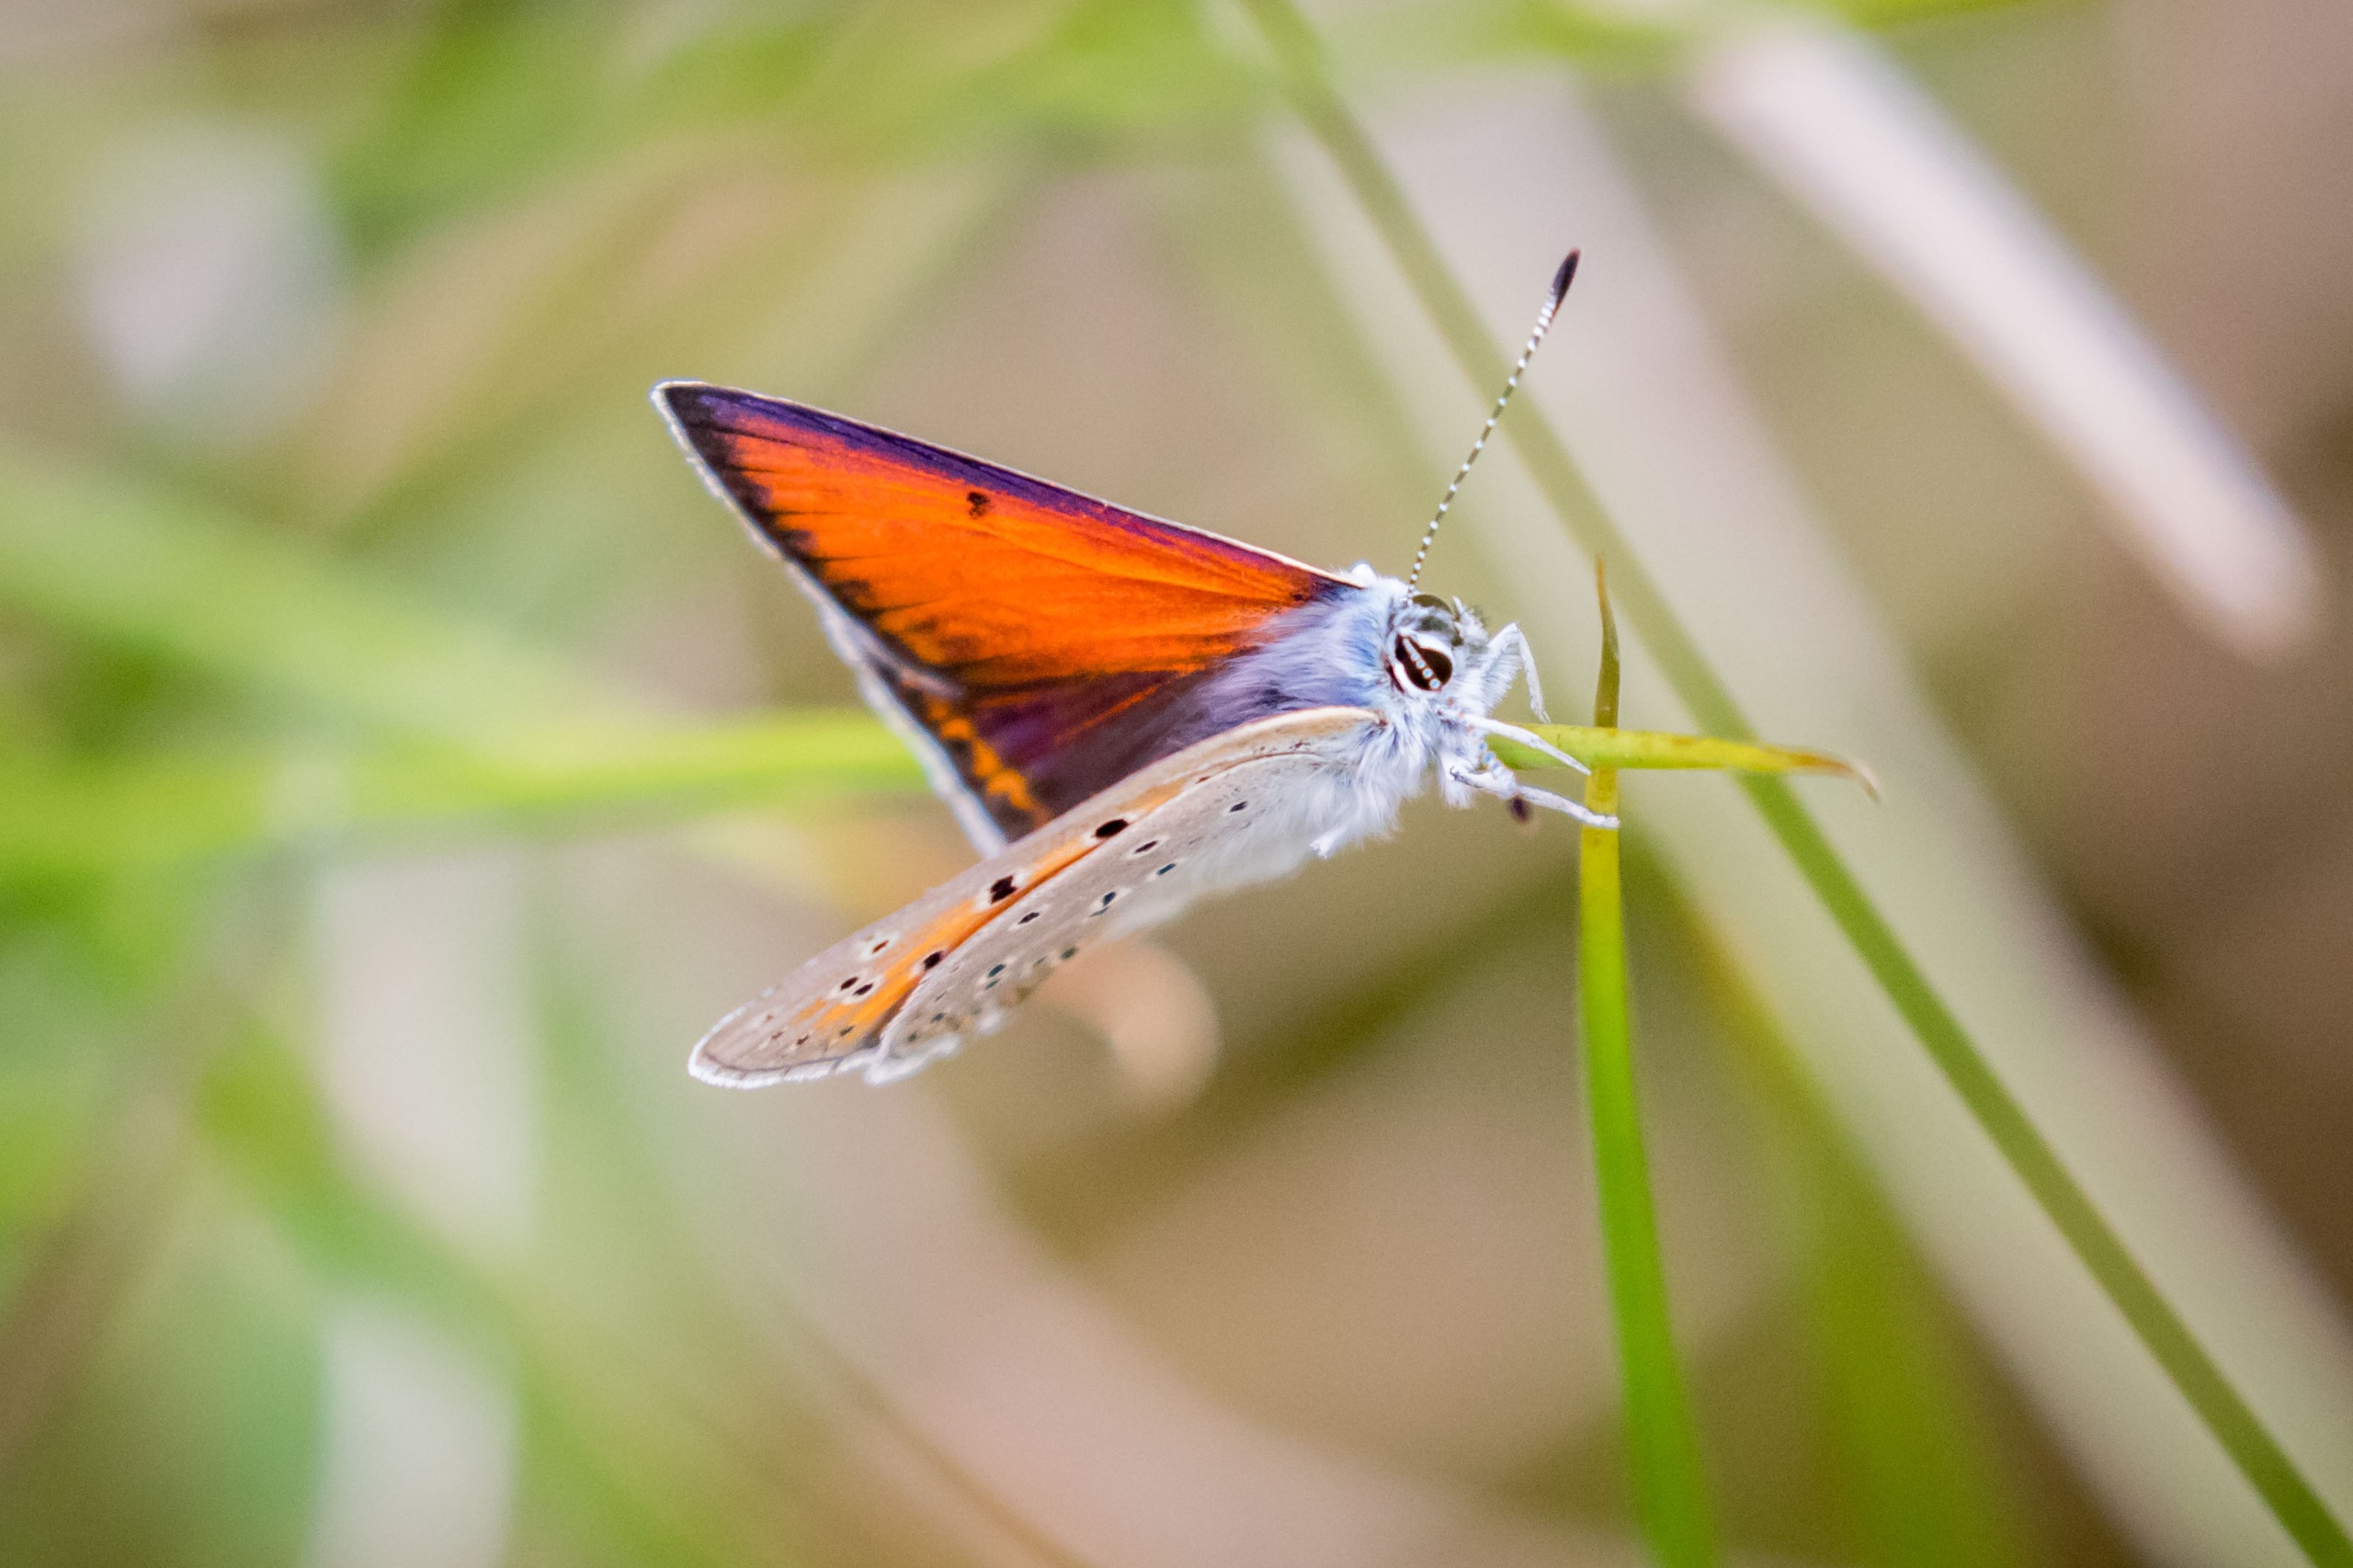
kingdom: Animalia
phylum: Arthropoda
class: Insecta
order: Lepidoptera
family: Lycaenidae
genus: Palaeochrysophanus
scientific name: Palaeochrysophanus hippothoe
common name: Violetrandet ildfugl
